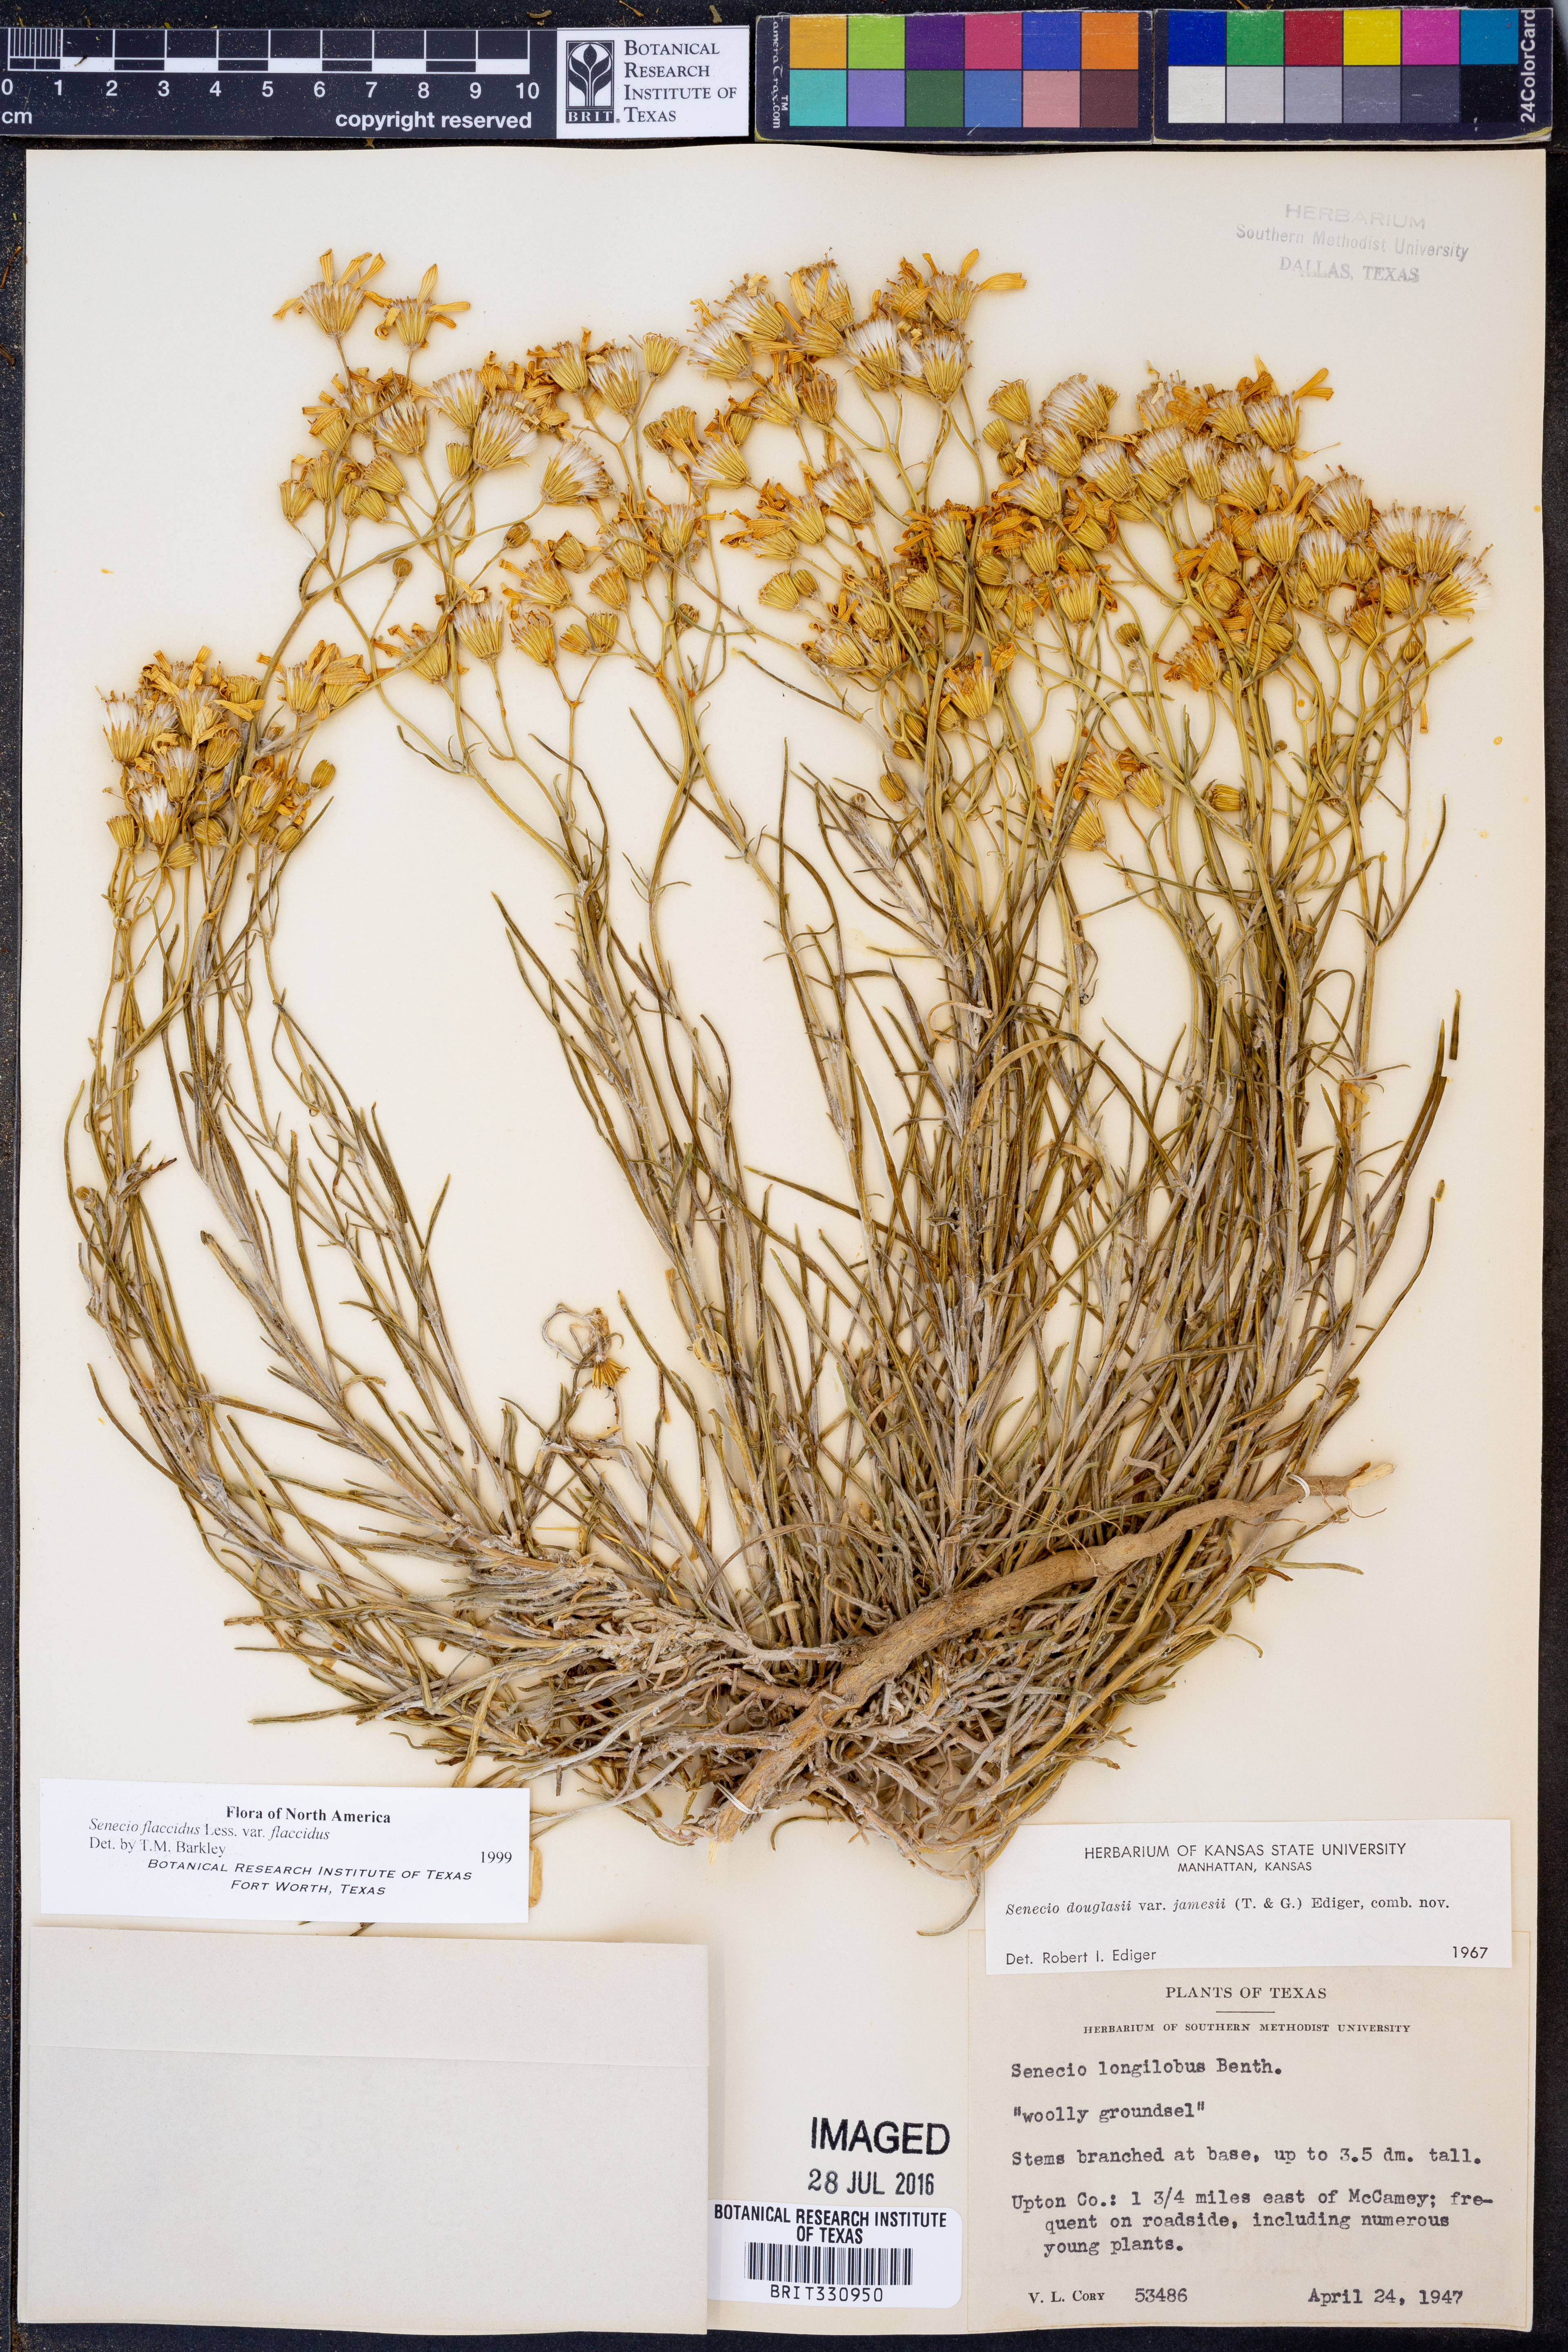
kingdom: Plantae
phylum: Tracheophyta
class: Magnoliopsida
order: Asterales
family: Asteraceae
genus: Senecio
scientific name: Senecio flaccidus
